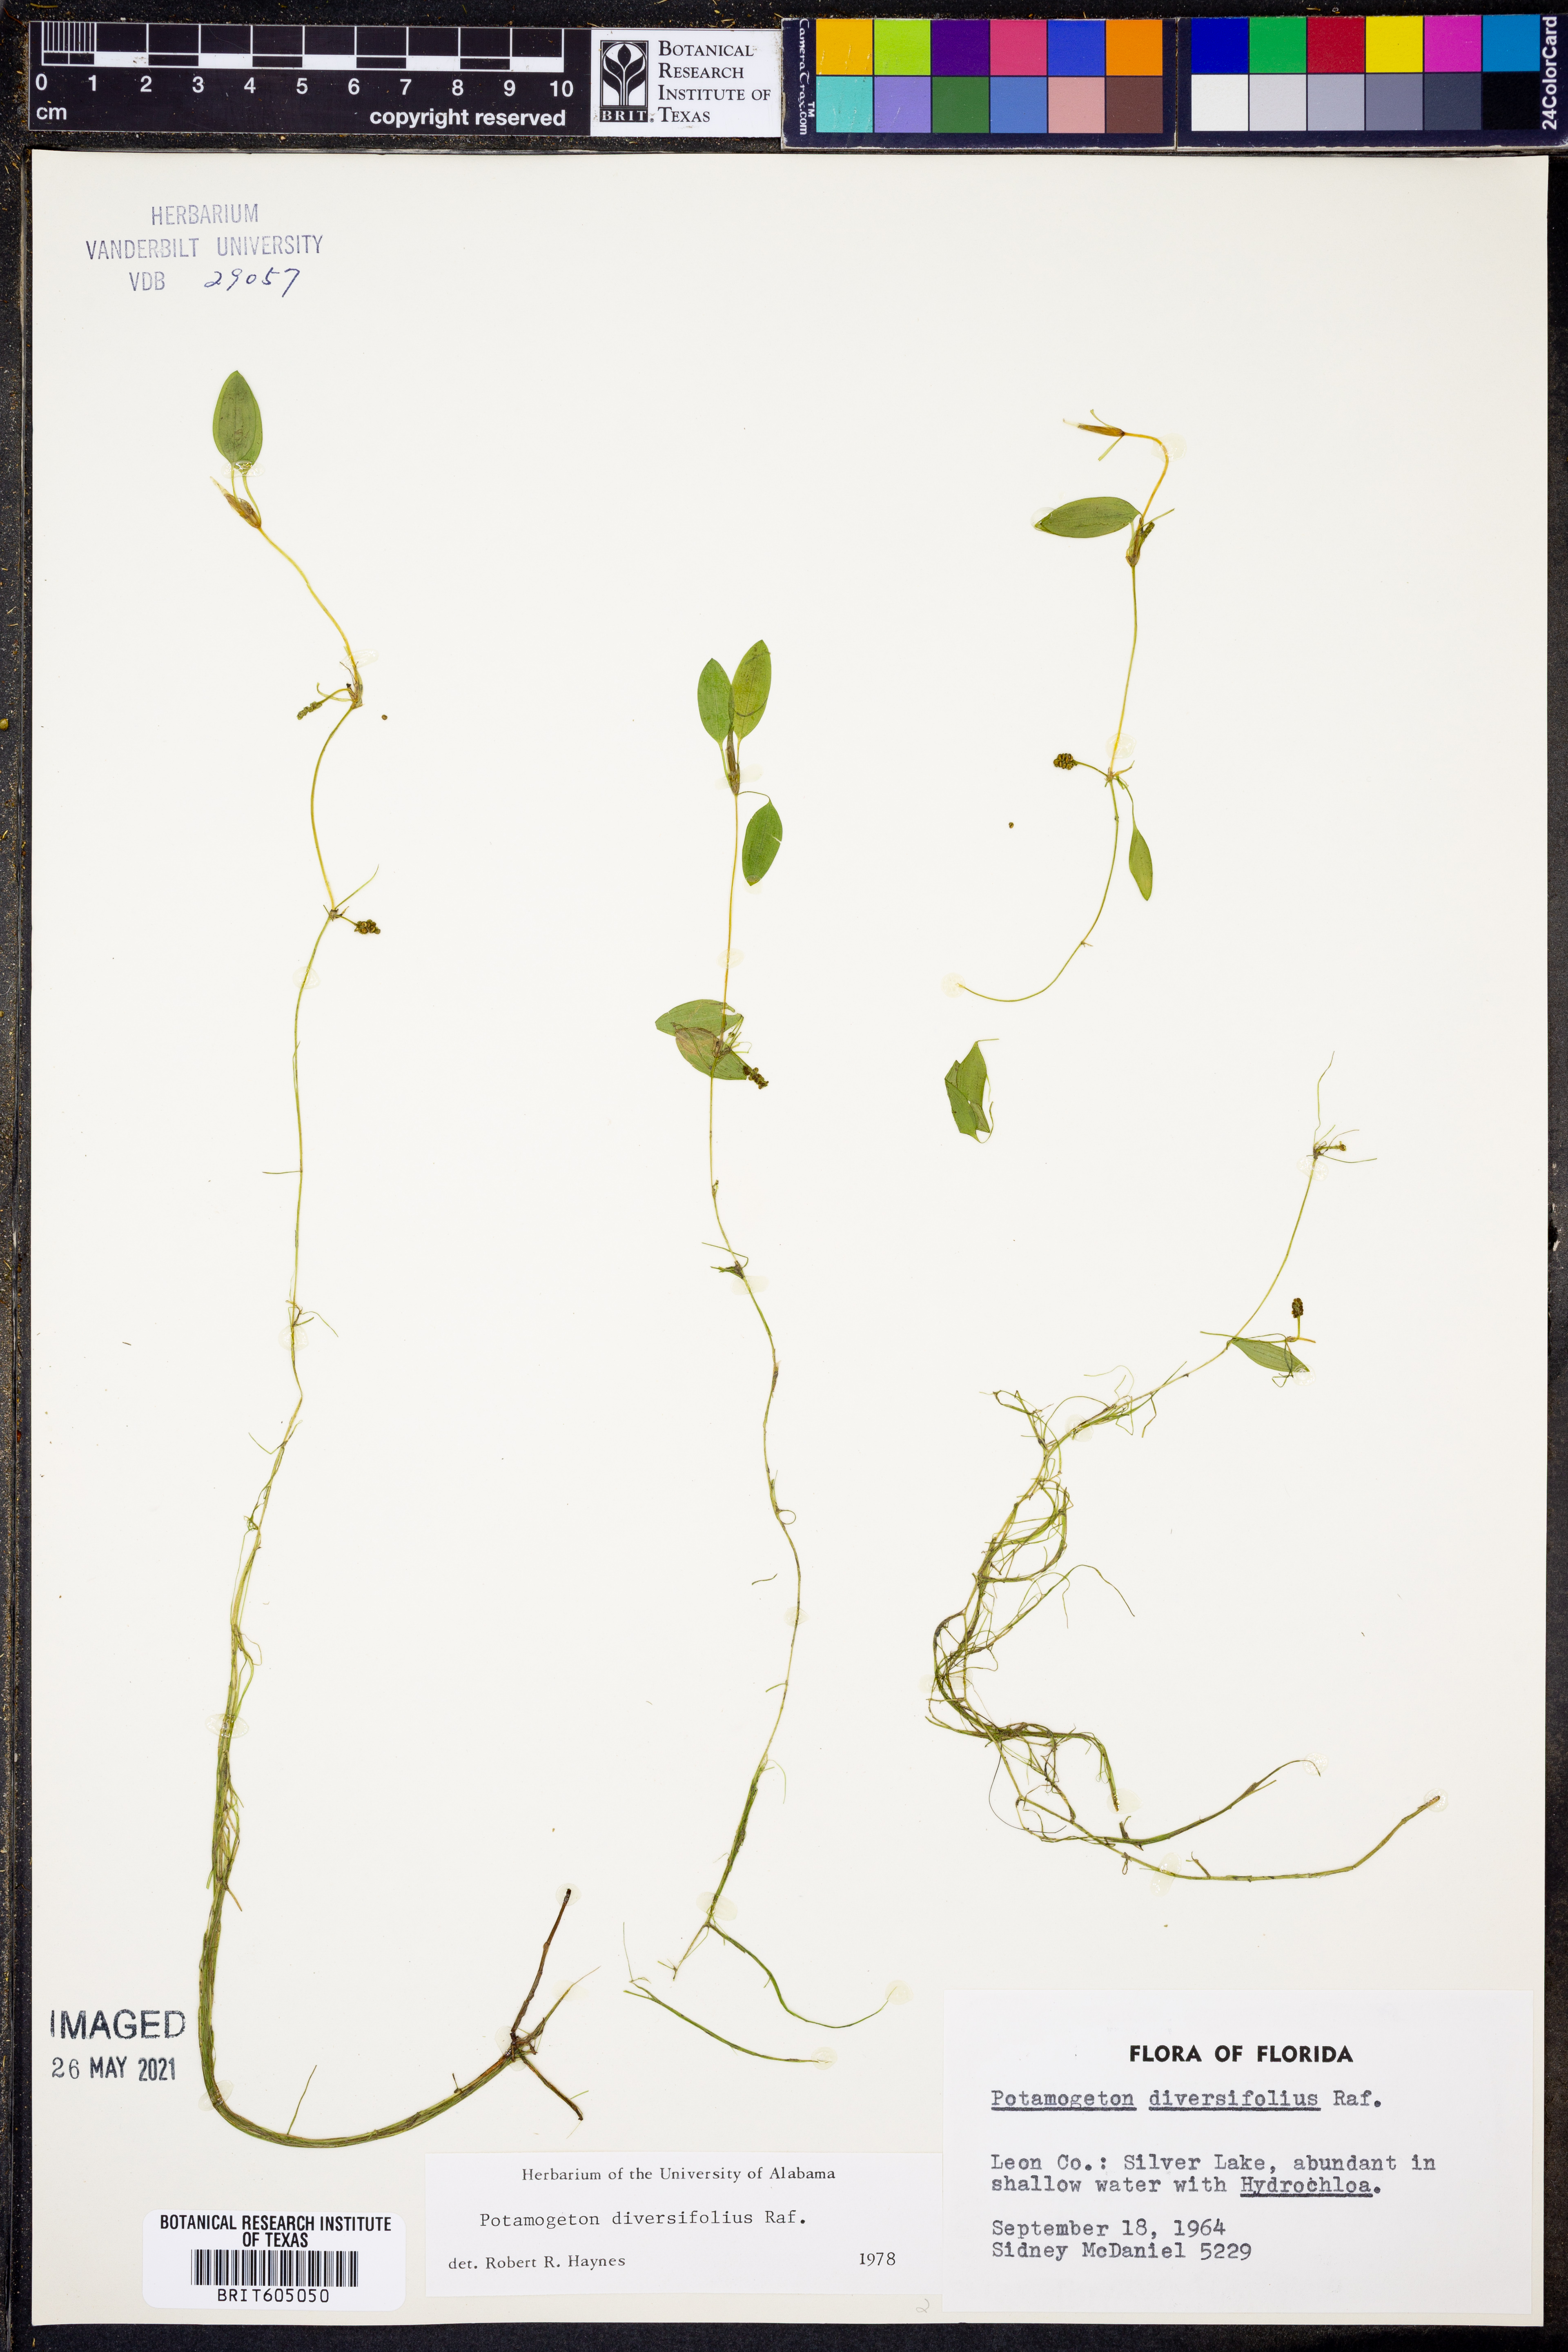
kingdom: Plantae
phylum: Tracheophyta
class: Liliopsida
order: Alismatales
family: Potamogetonaceae
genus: Potamogeton
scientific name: Potamogeton diversifolius
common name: Water-thread pondweed
